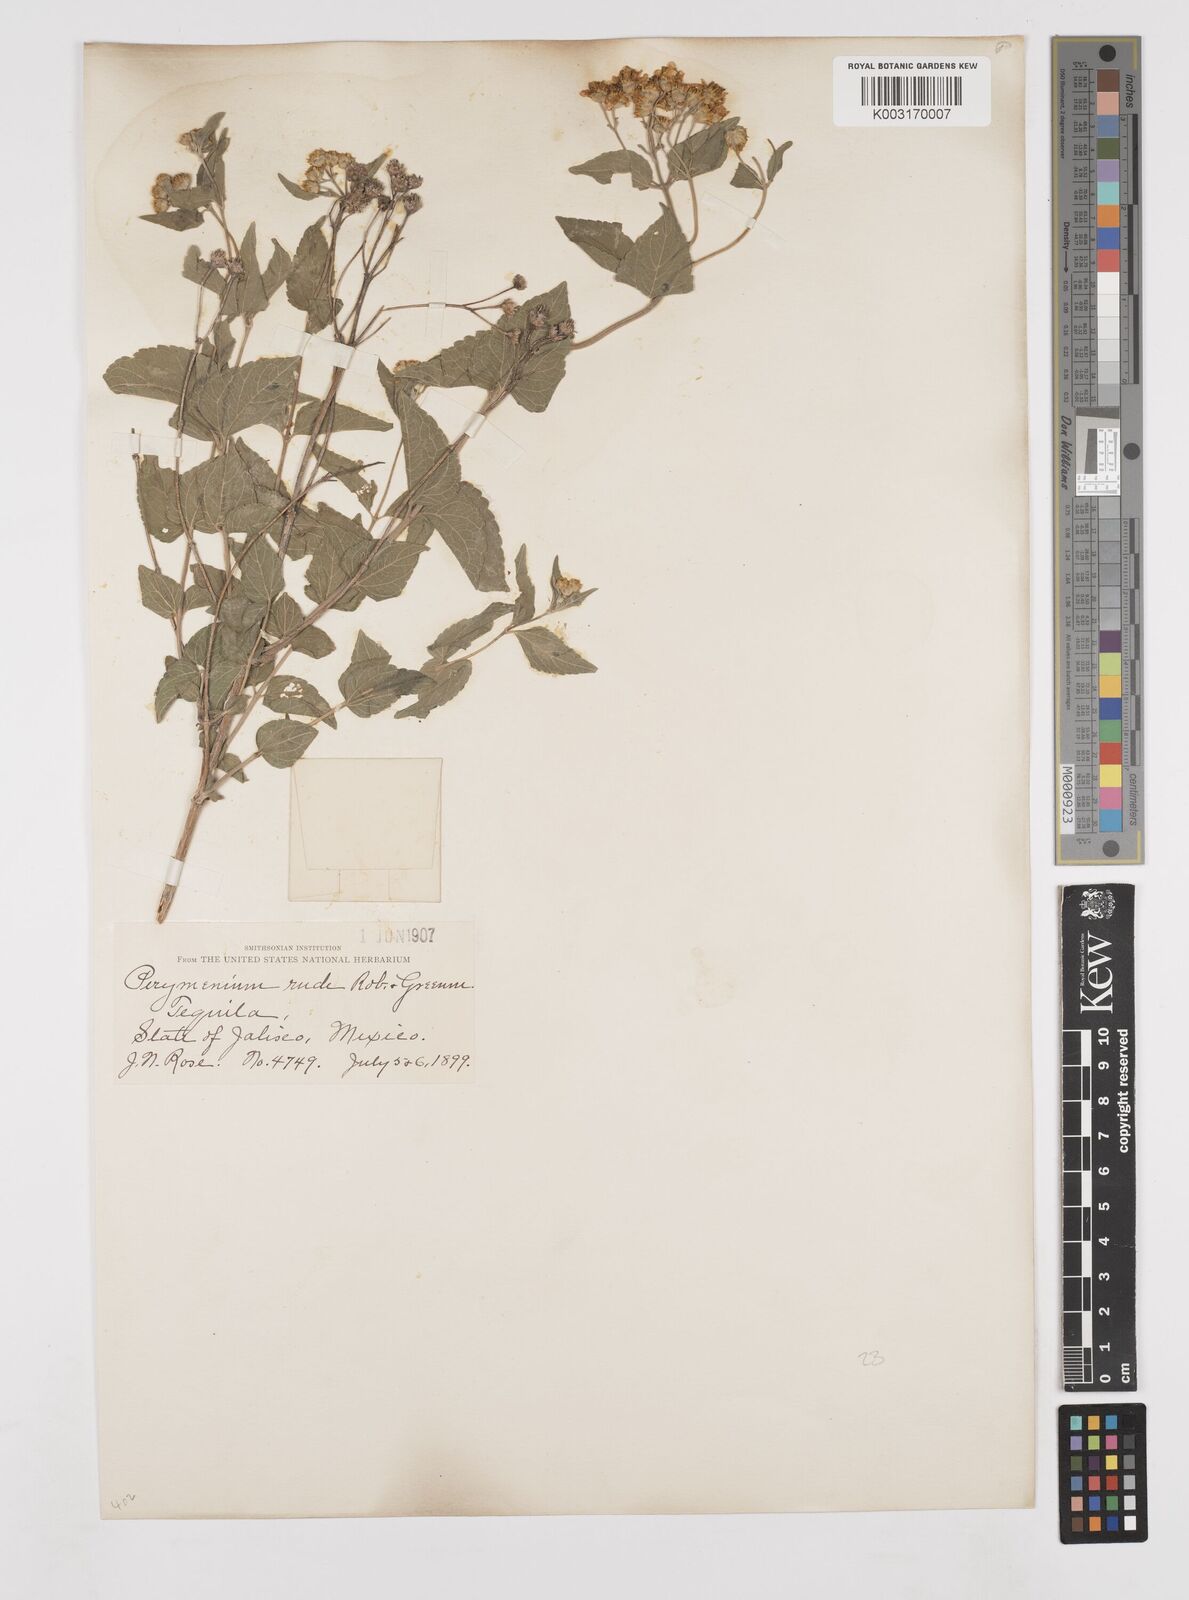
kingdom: Plantae
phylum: Tracheophyta
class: Magnoliopsida
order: Asterales
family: Asteraceae
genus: Perymenium
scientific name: Perymenium mendezii
